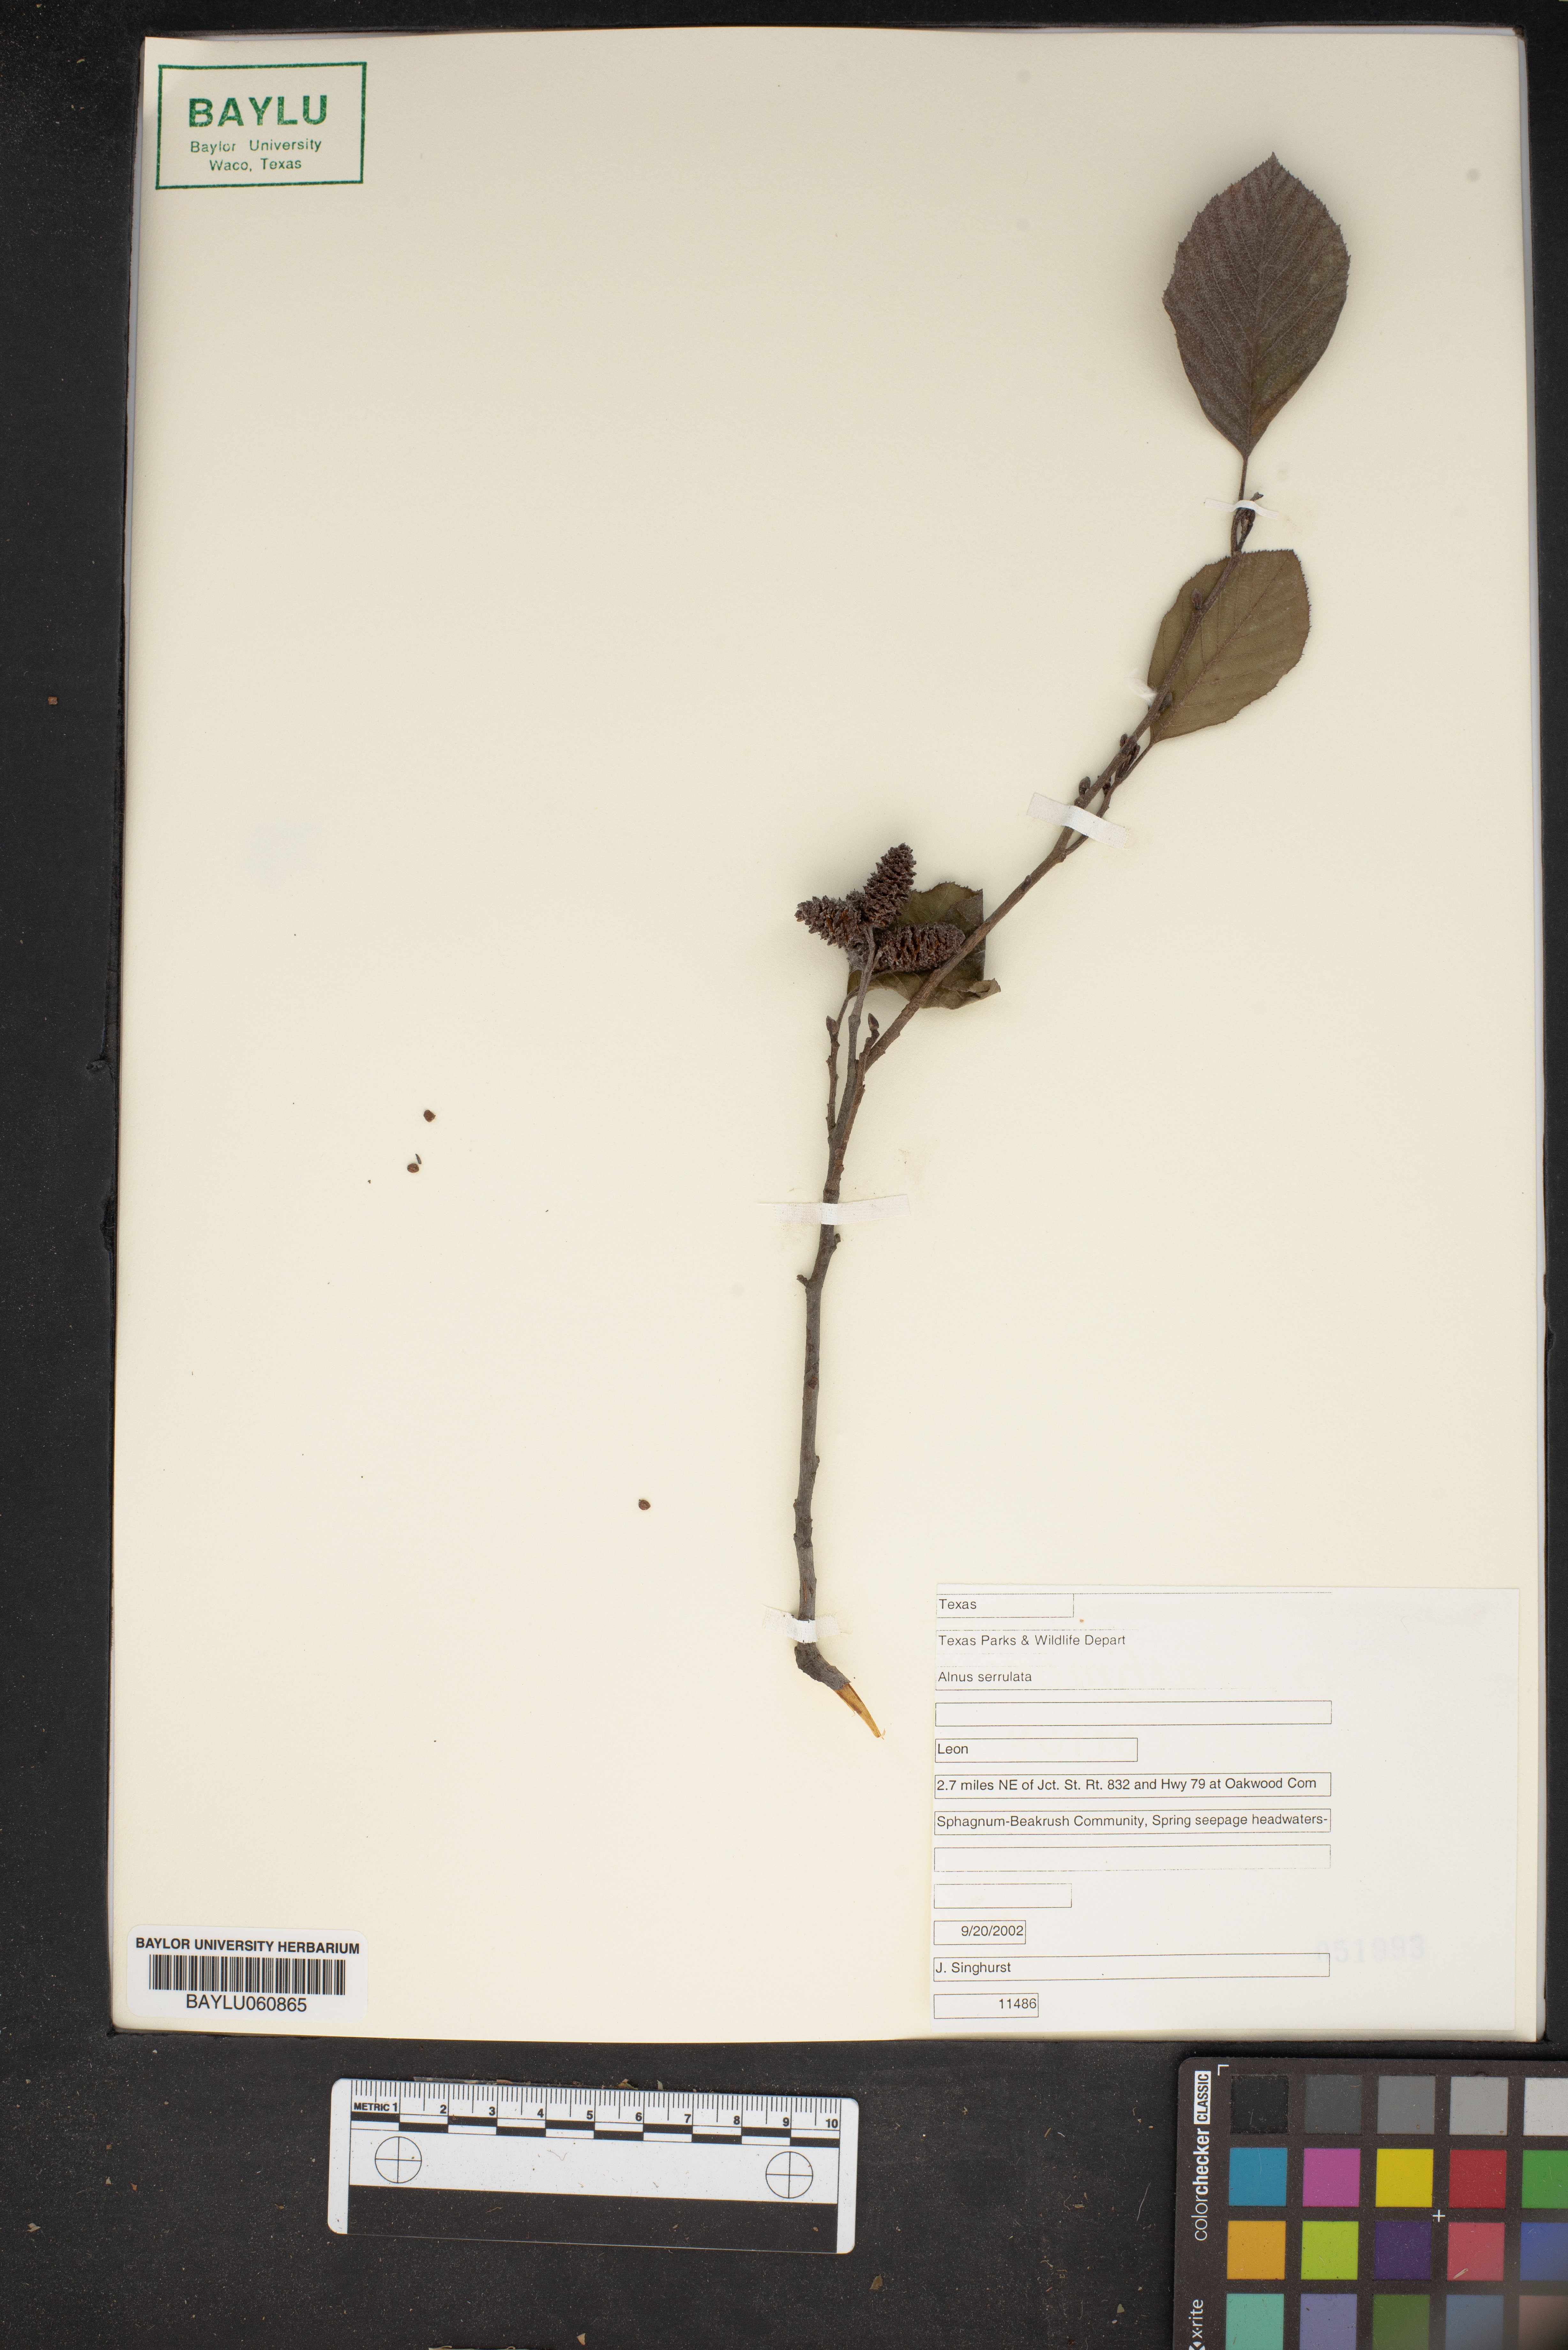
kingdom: Plantae
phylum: Tracheophyta
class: Magnoliopsida
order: Fagales
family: Betulaceae
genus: Alnus
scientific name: Alnus serrulata
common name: Hazel alder
